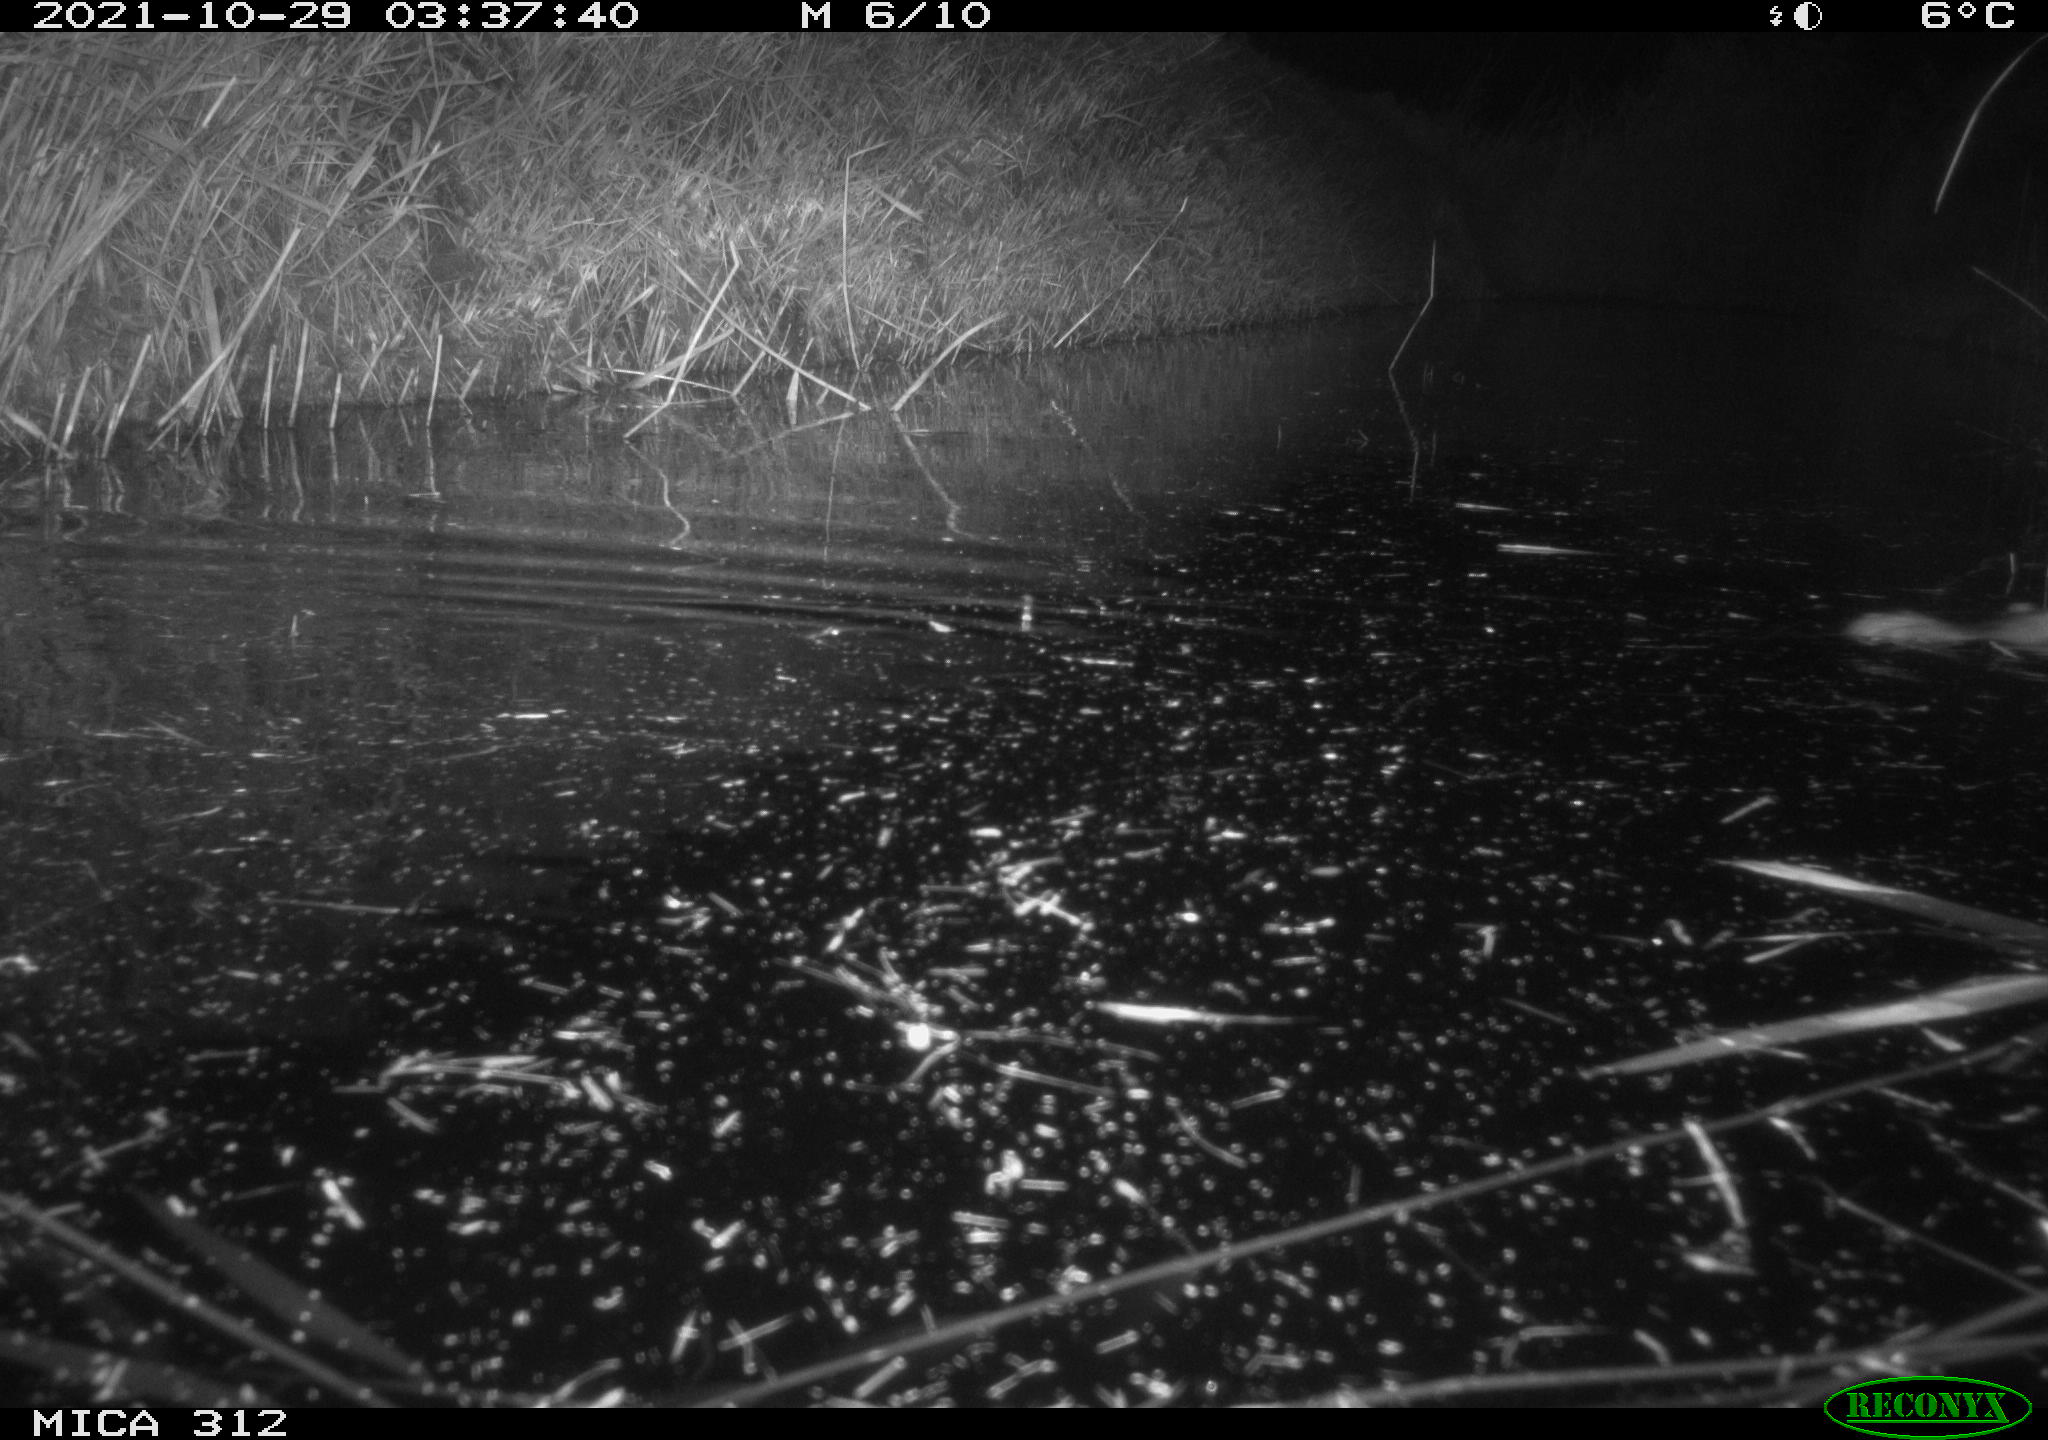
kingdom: Animalia
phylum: Chordata
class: Mammalia
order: Rodentia
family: Muridae
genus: Rattus
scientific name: Rattus norvegicus
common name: Brown rat
